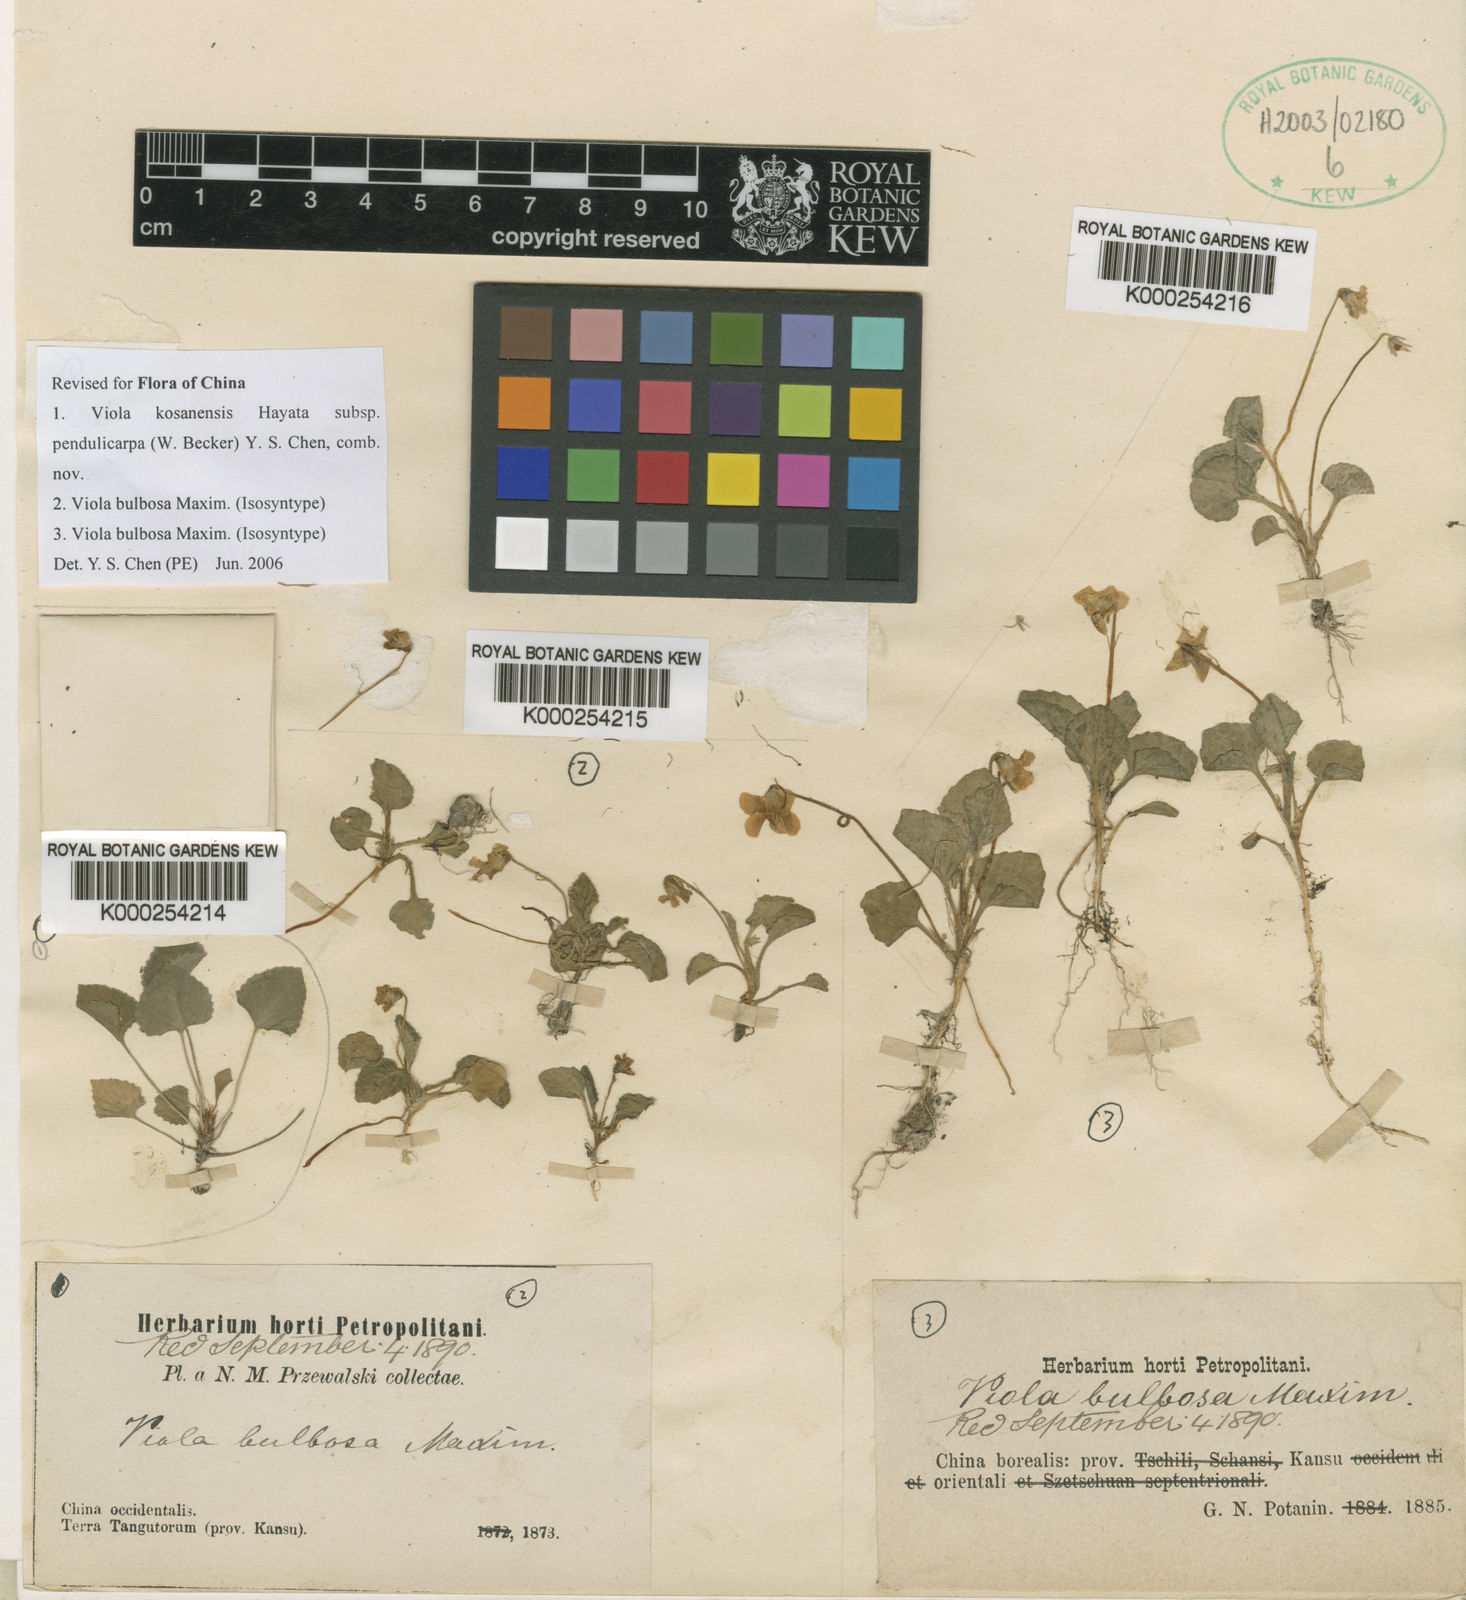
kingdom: Plantae
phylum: Tracheophyta
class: Magnoliopsida
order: Malpighiales
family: Violaceae
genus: Viola
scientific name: Viola bulbosa
